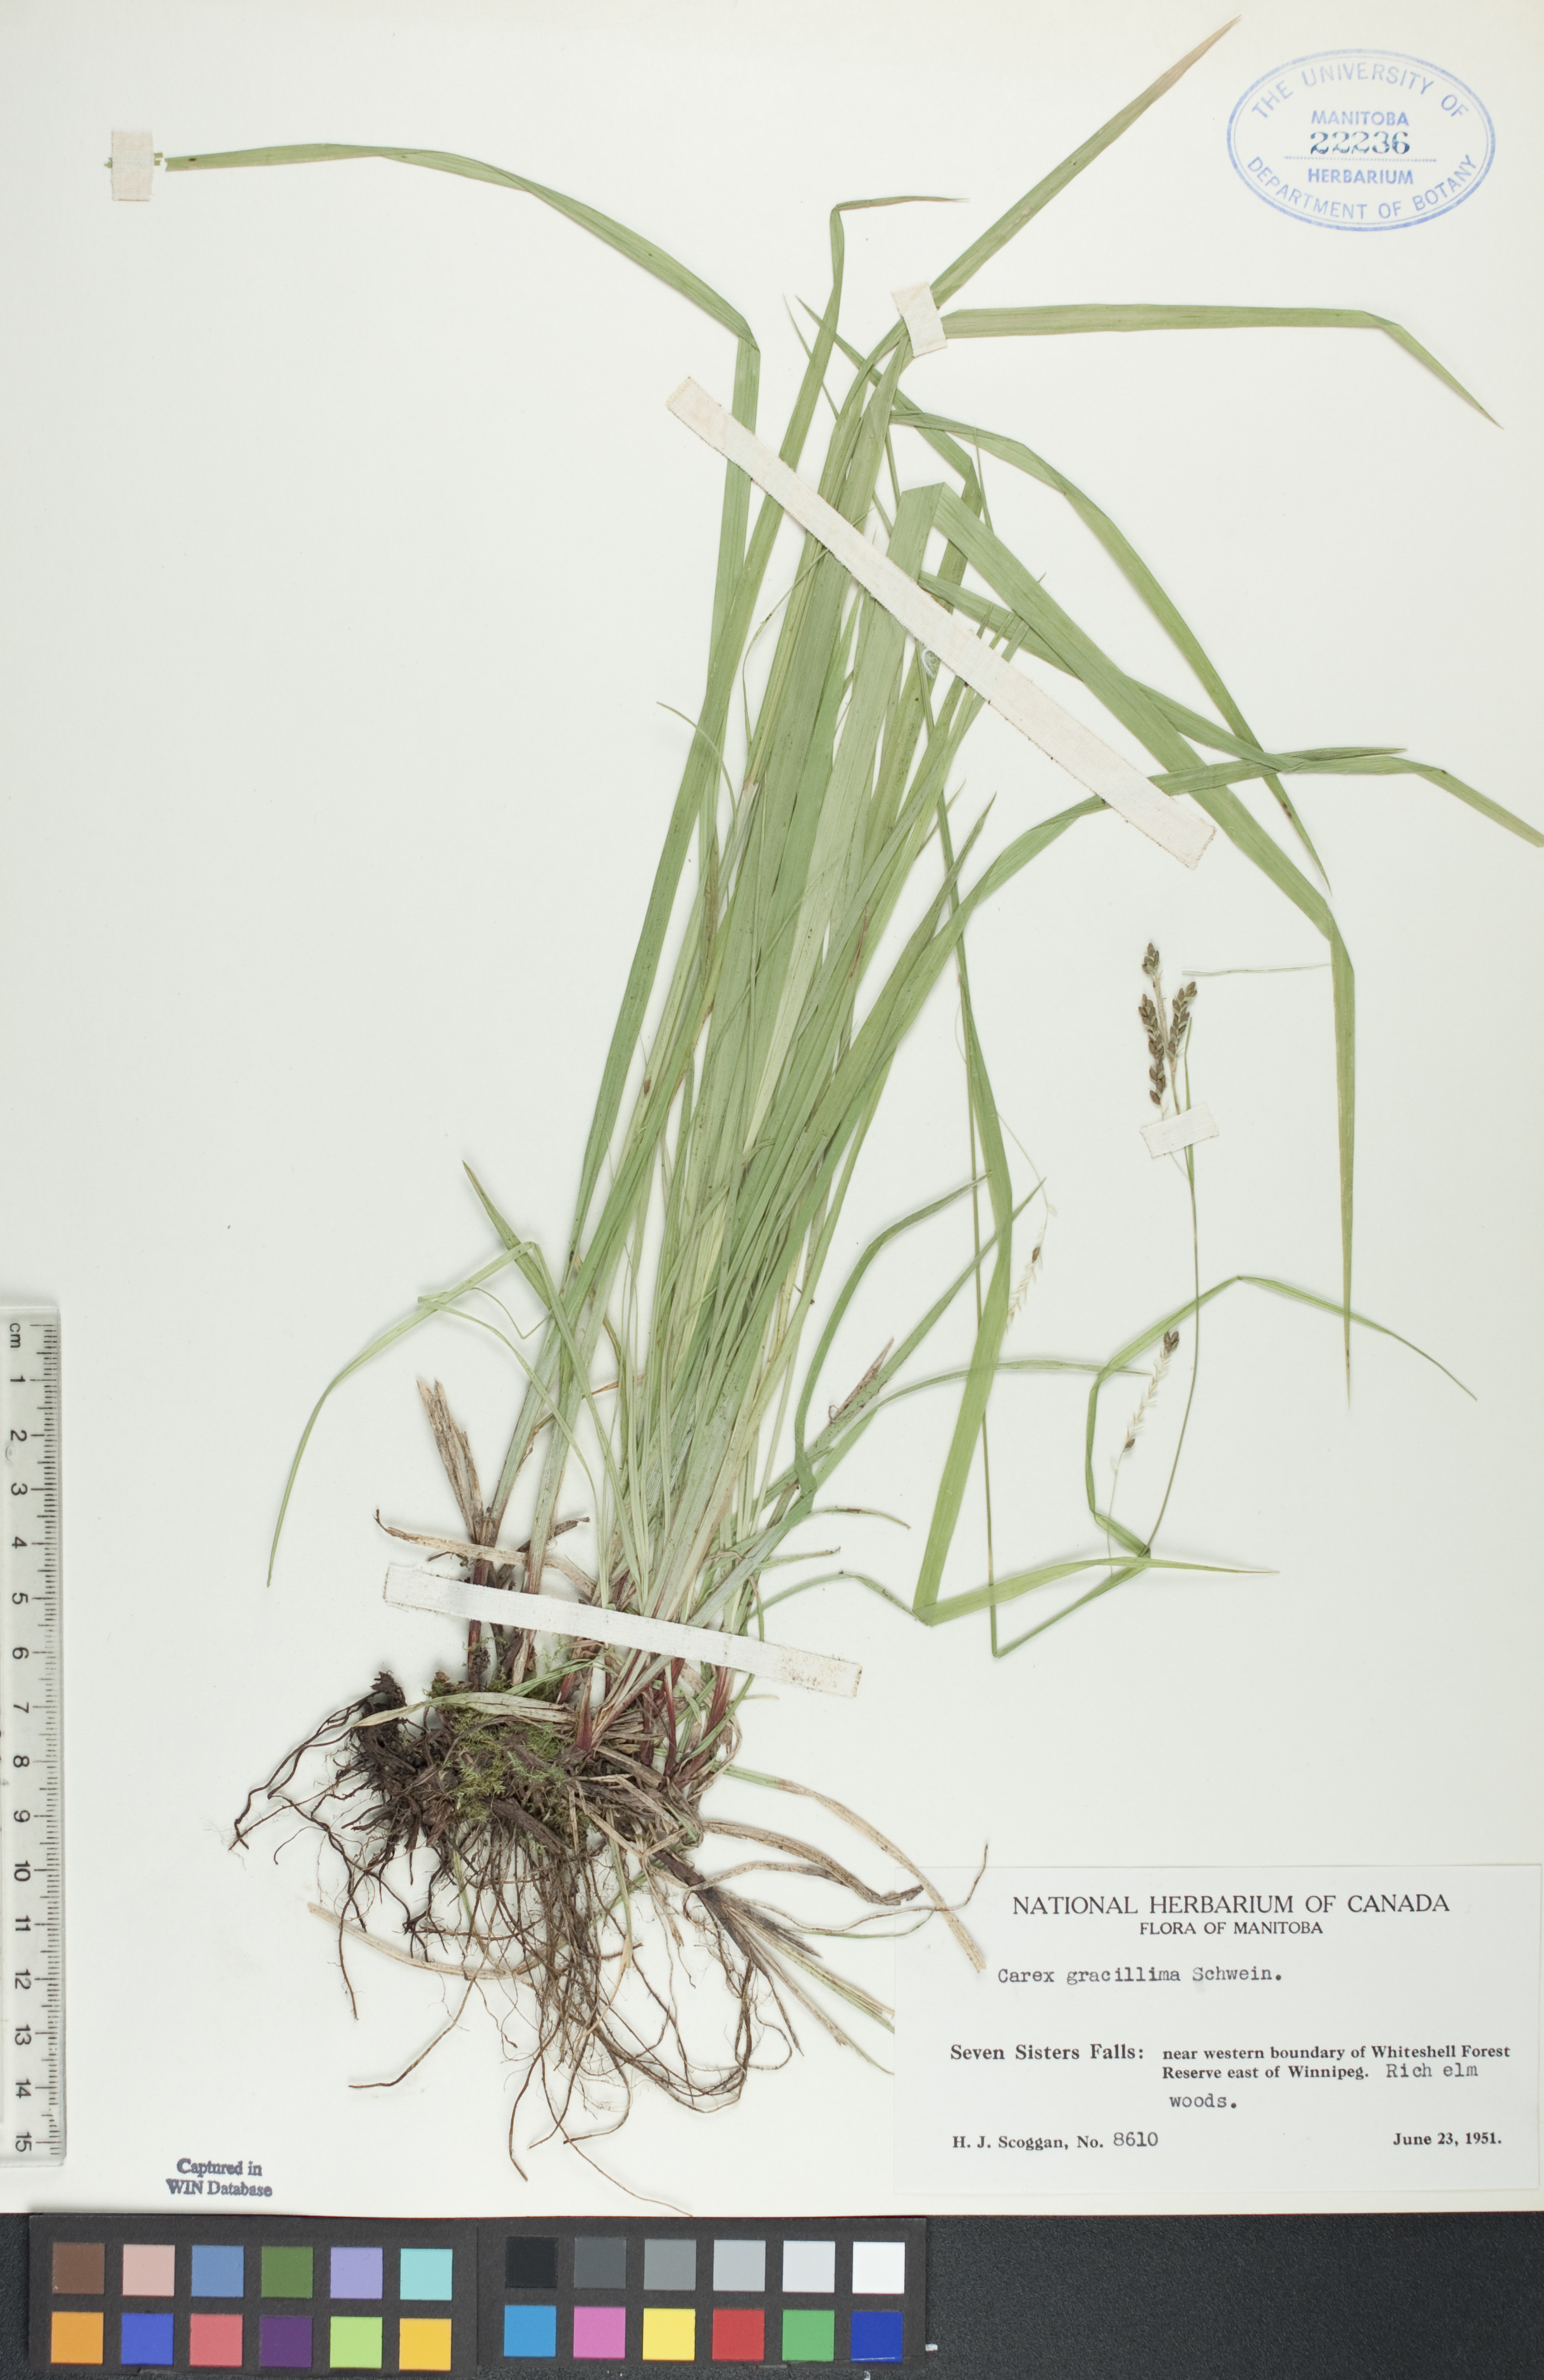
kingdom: Plantae
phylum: Tracheophyta
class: Liliopsida
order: Poales
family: Cyperaceae
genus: Carex
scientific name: Carex gracillima
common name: Graceful sedge
